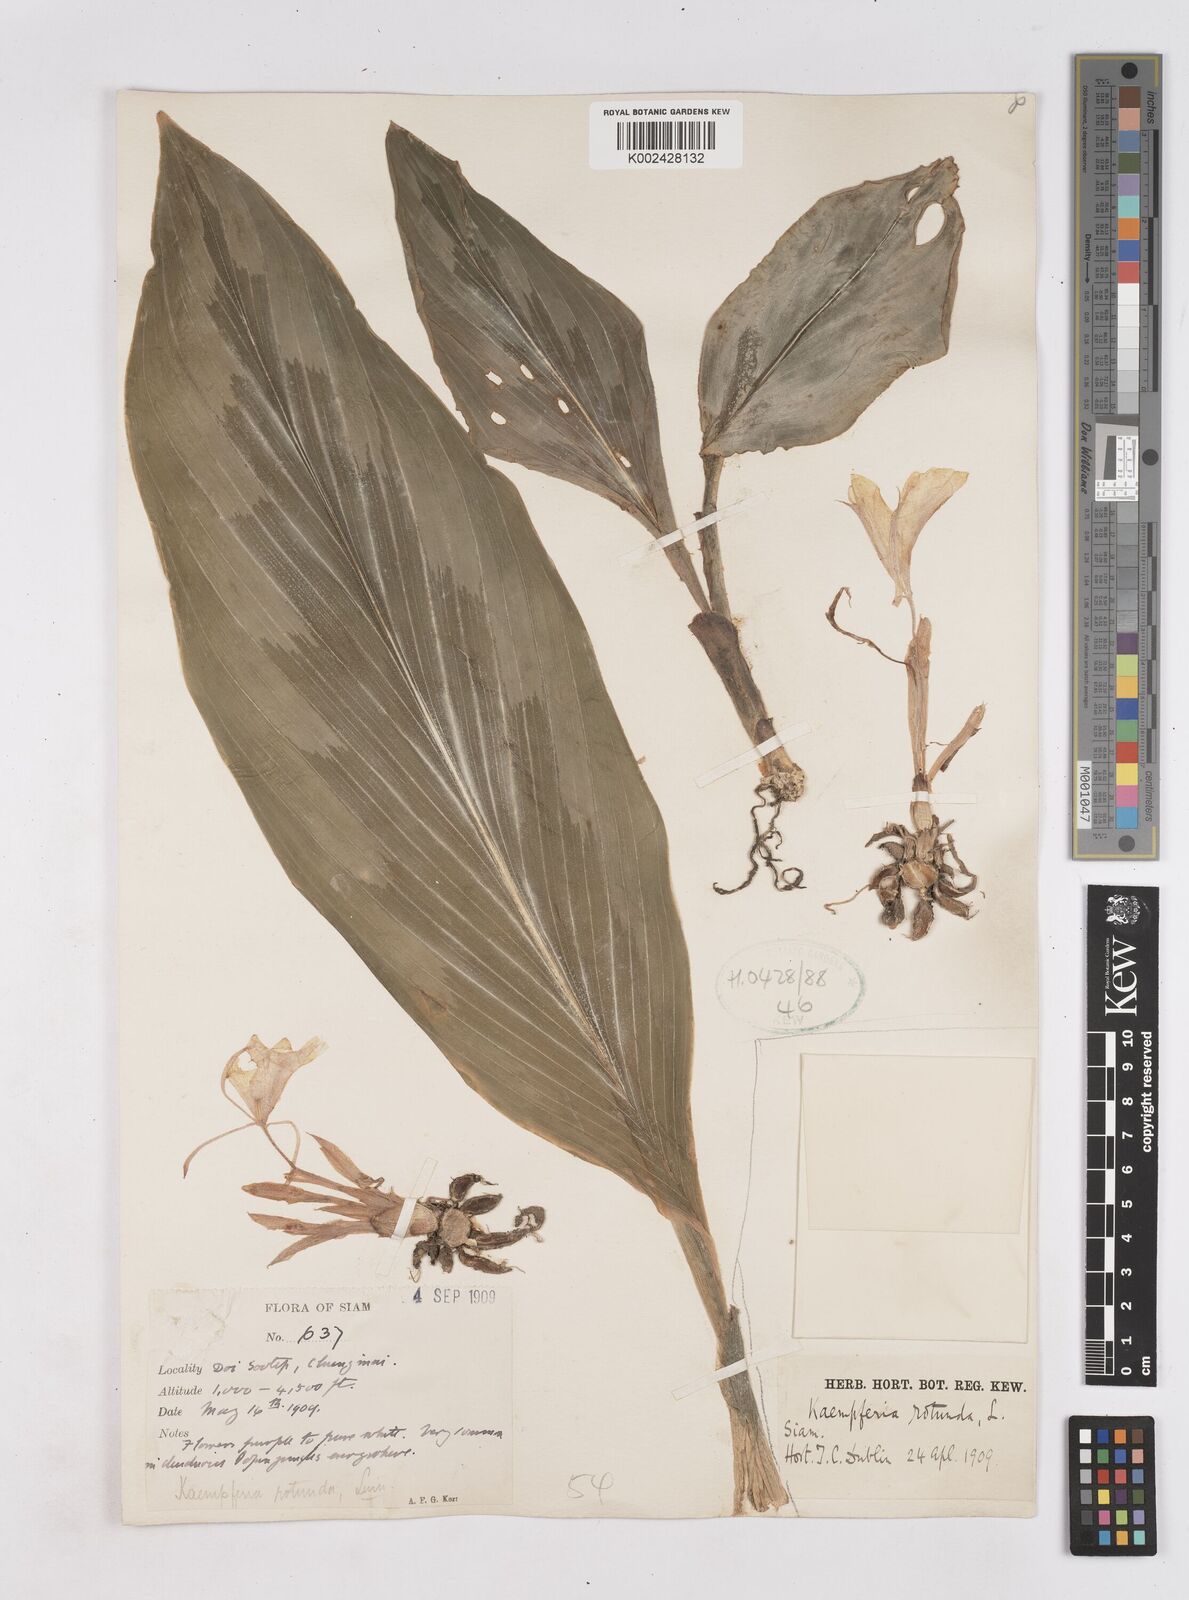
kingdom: Plantae
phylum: Tracheophyta
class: Liliopsida
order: Zingiberales
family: Zingiberaceae
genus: Kaempferia
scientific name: Kaempferia rotunda
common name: Tropical-crocus
